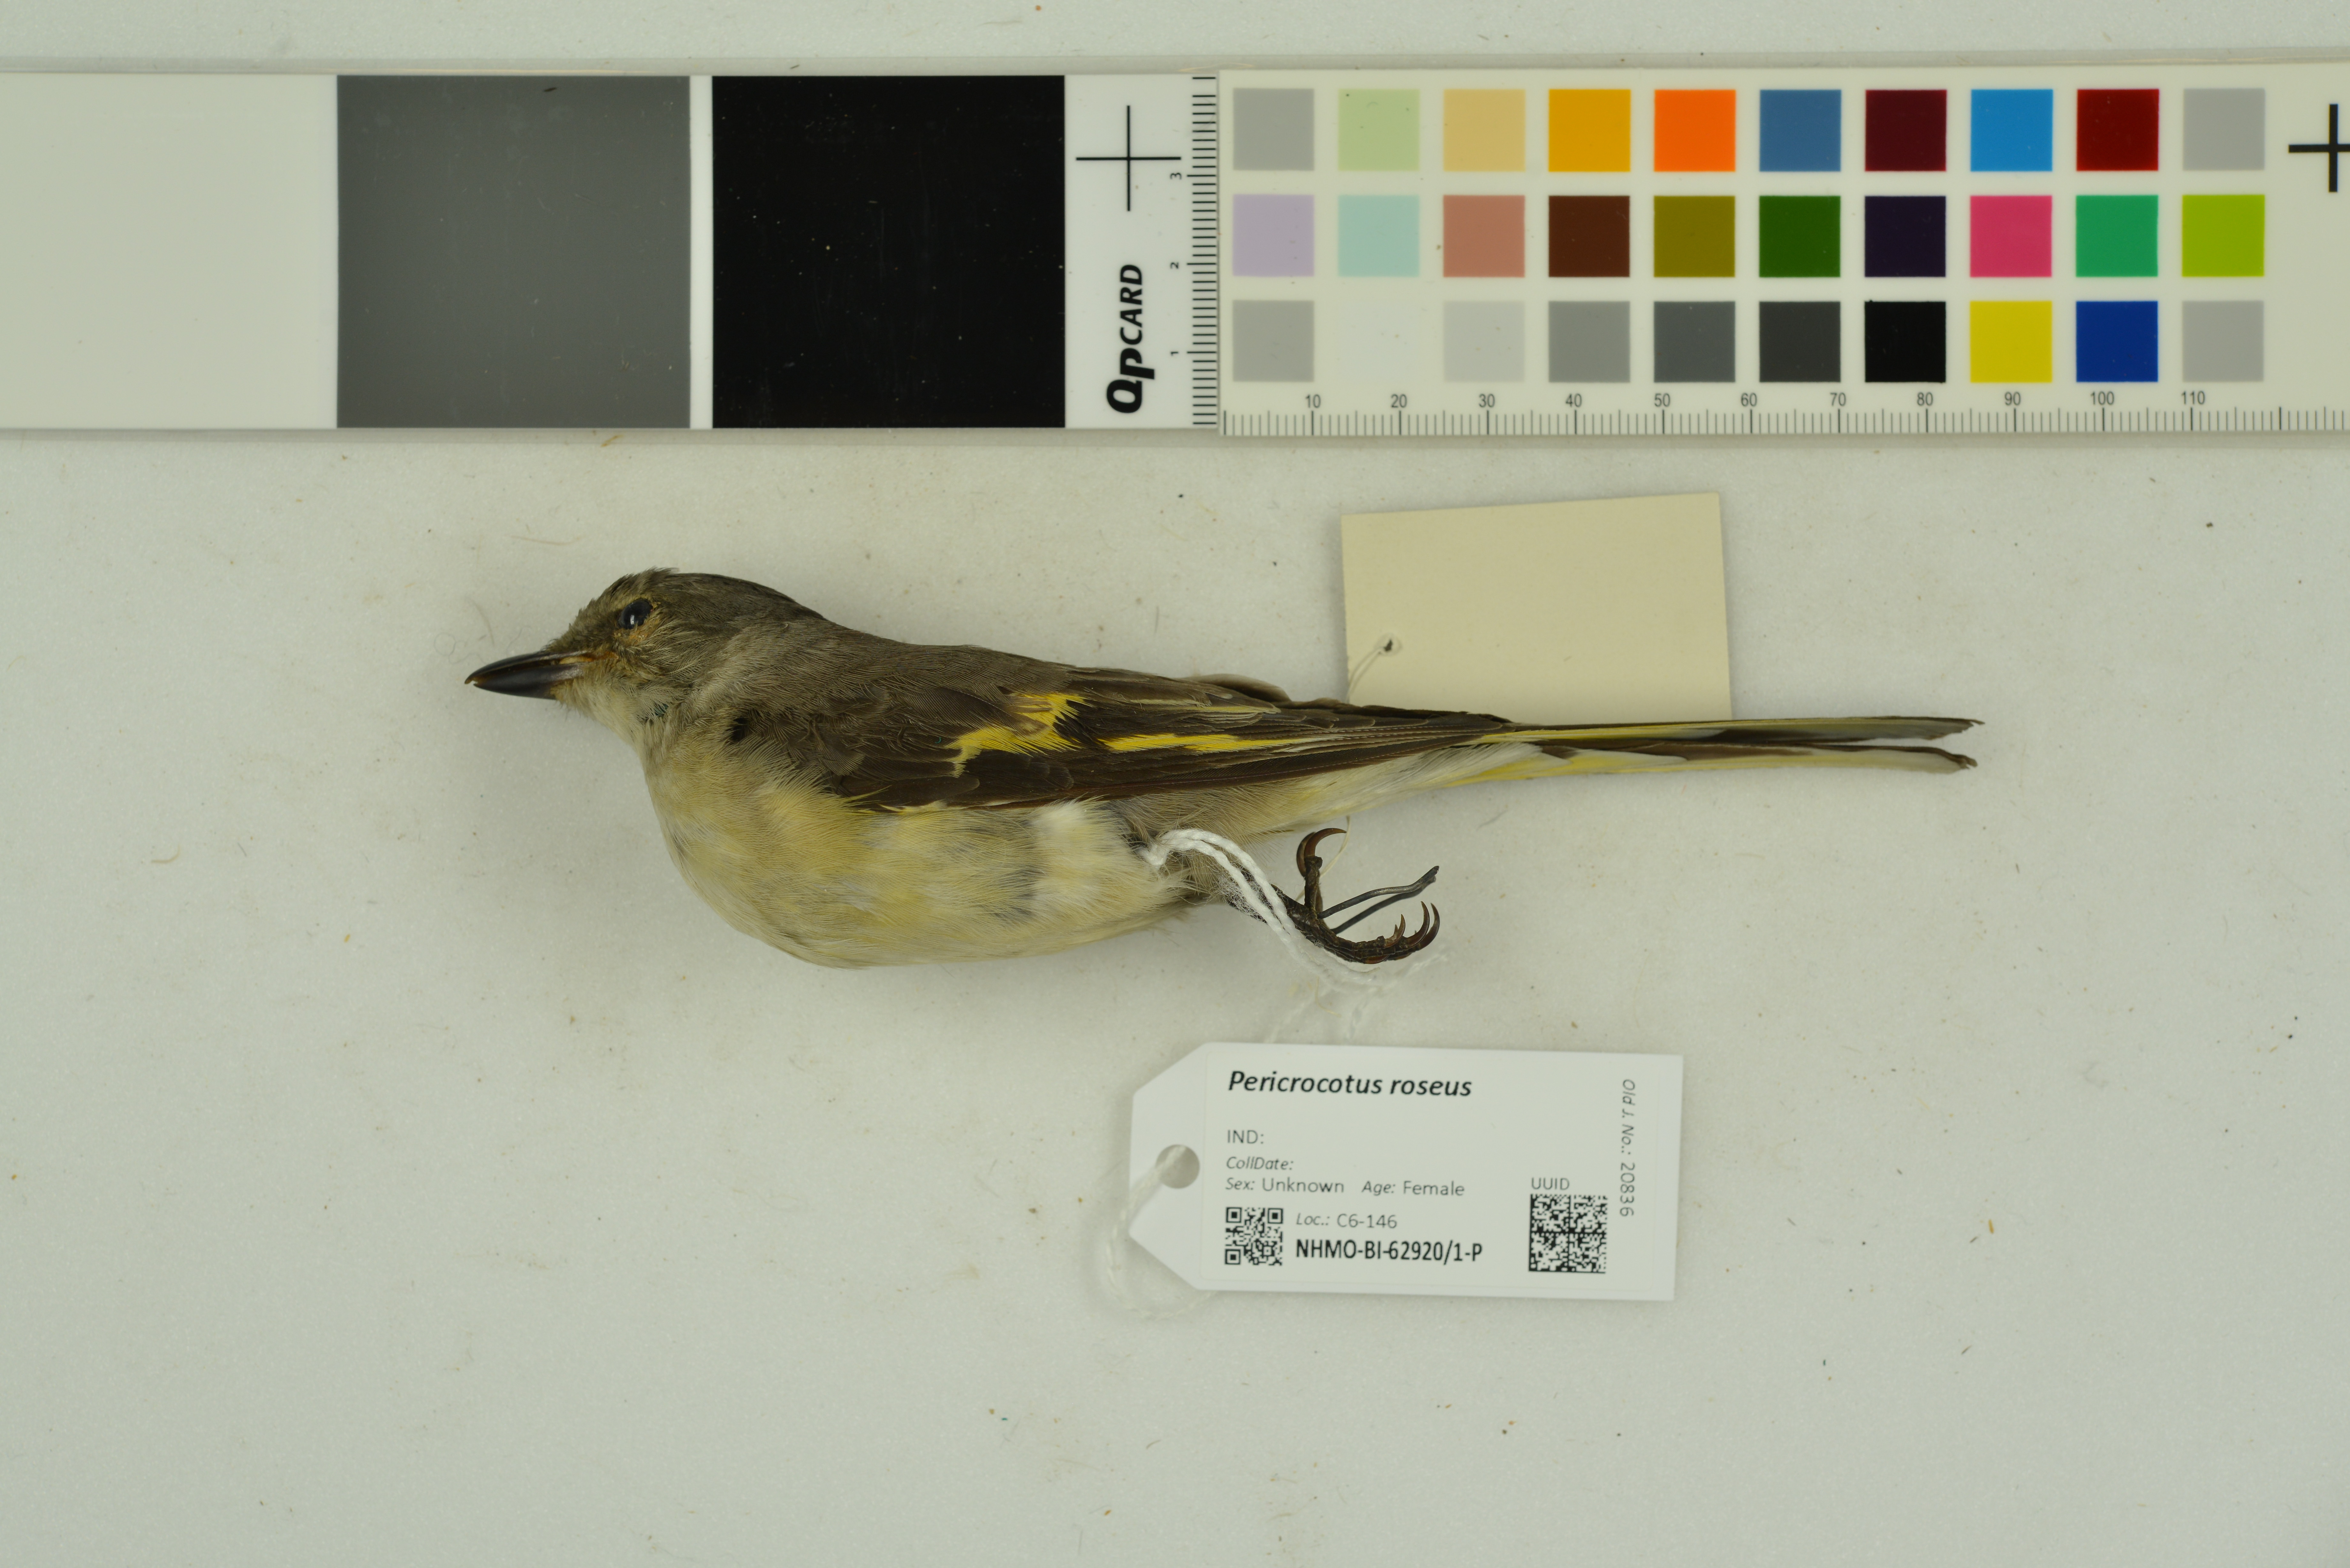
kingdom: Animalia
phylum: Chordata
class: Aves
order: Passeriformes
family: Campephagidae
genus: Pericrocotus
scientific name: Pericrocotus roseus
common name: Rosy minivet
